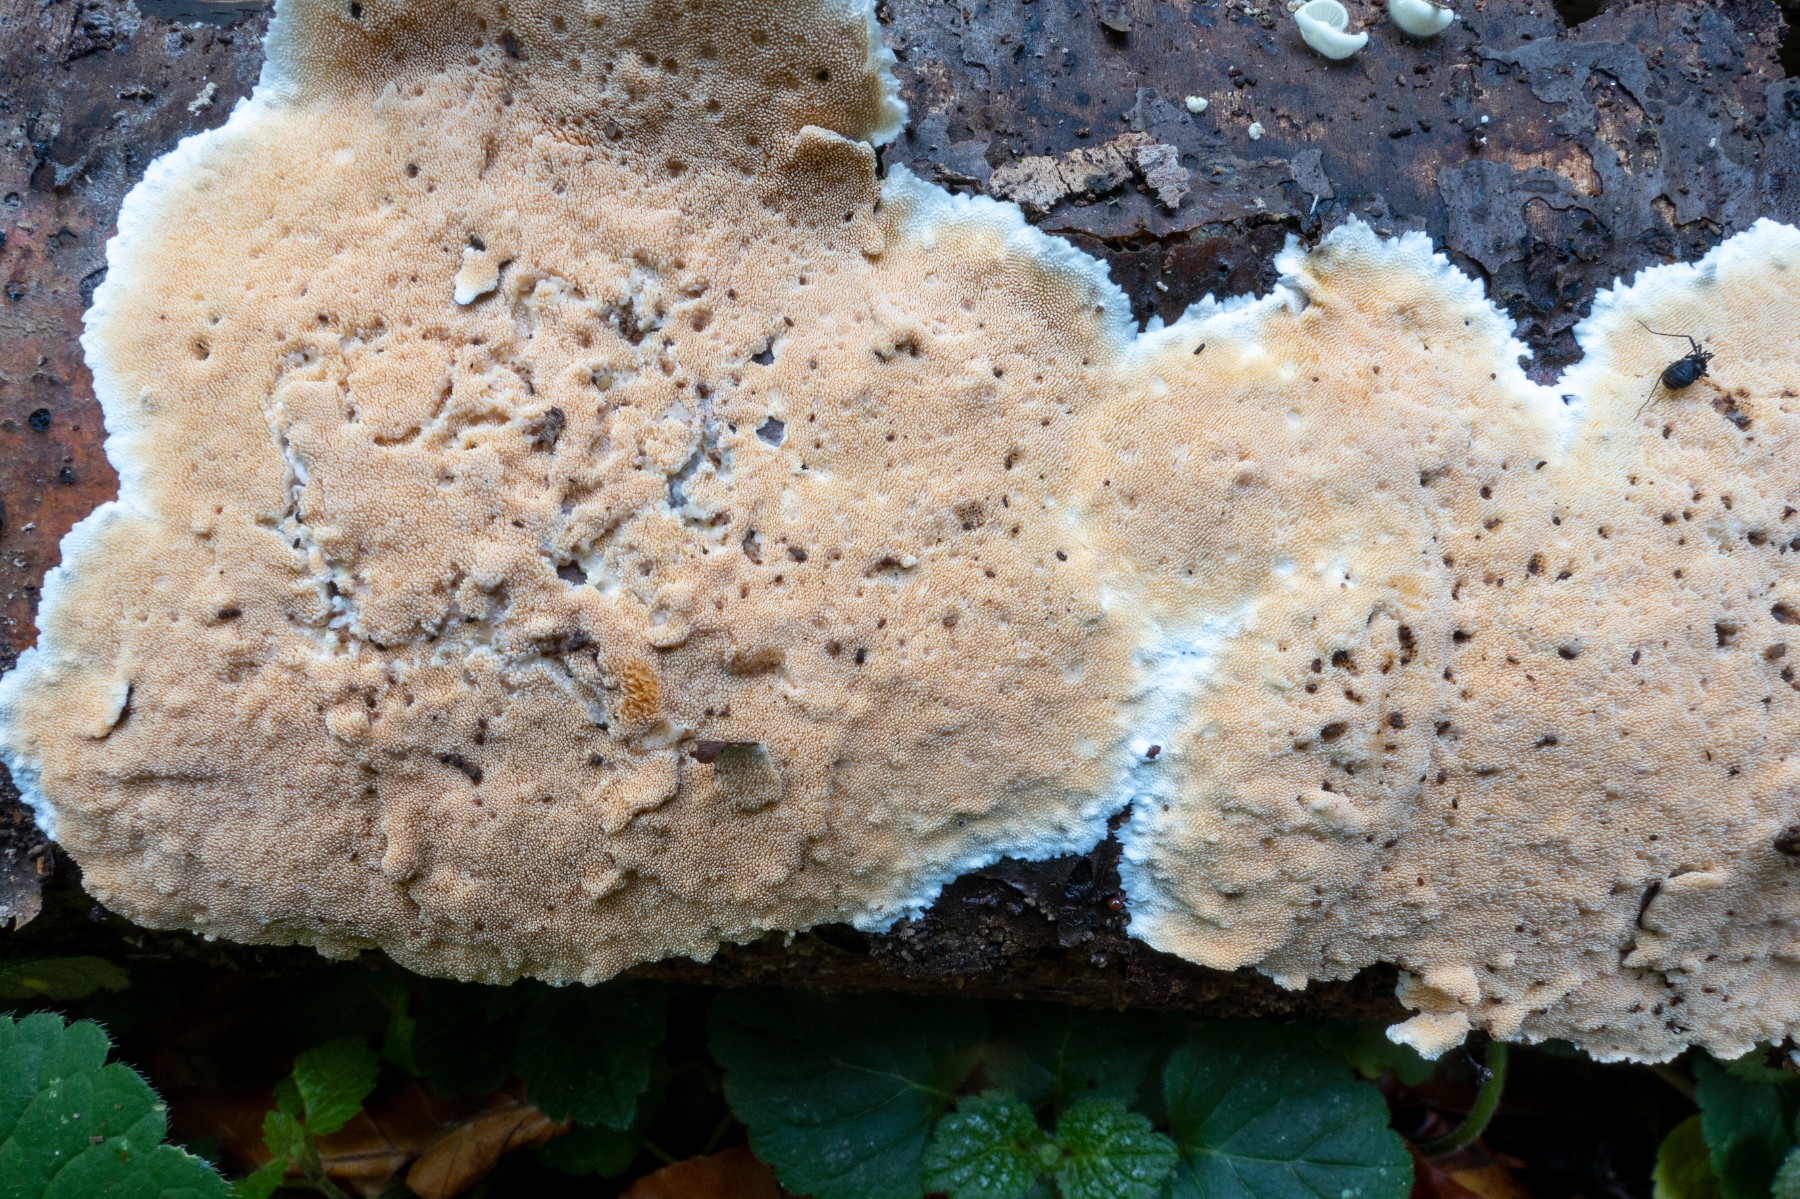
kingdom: Fungi
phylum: Basidiomycota
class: Agaricomycetes
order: Polyporales
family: Steccherinaceae
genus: Steccherinum
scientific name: Steccherinum ochraceum
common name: almindelig skønpig
